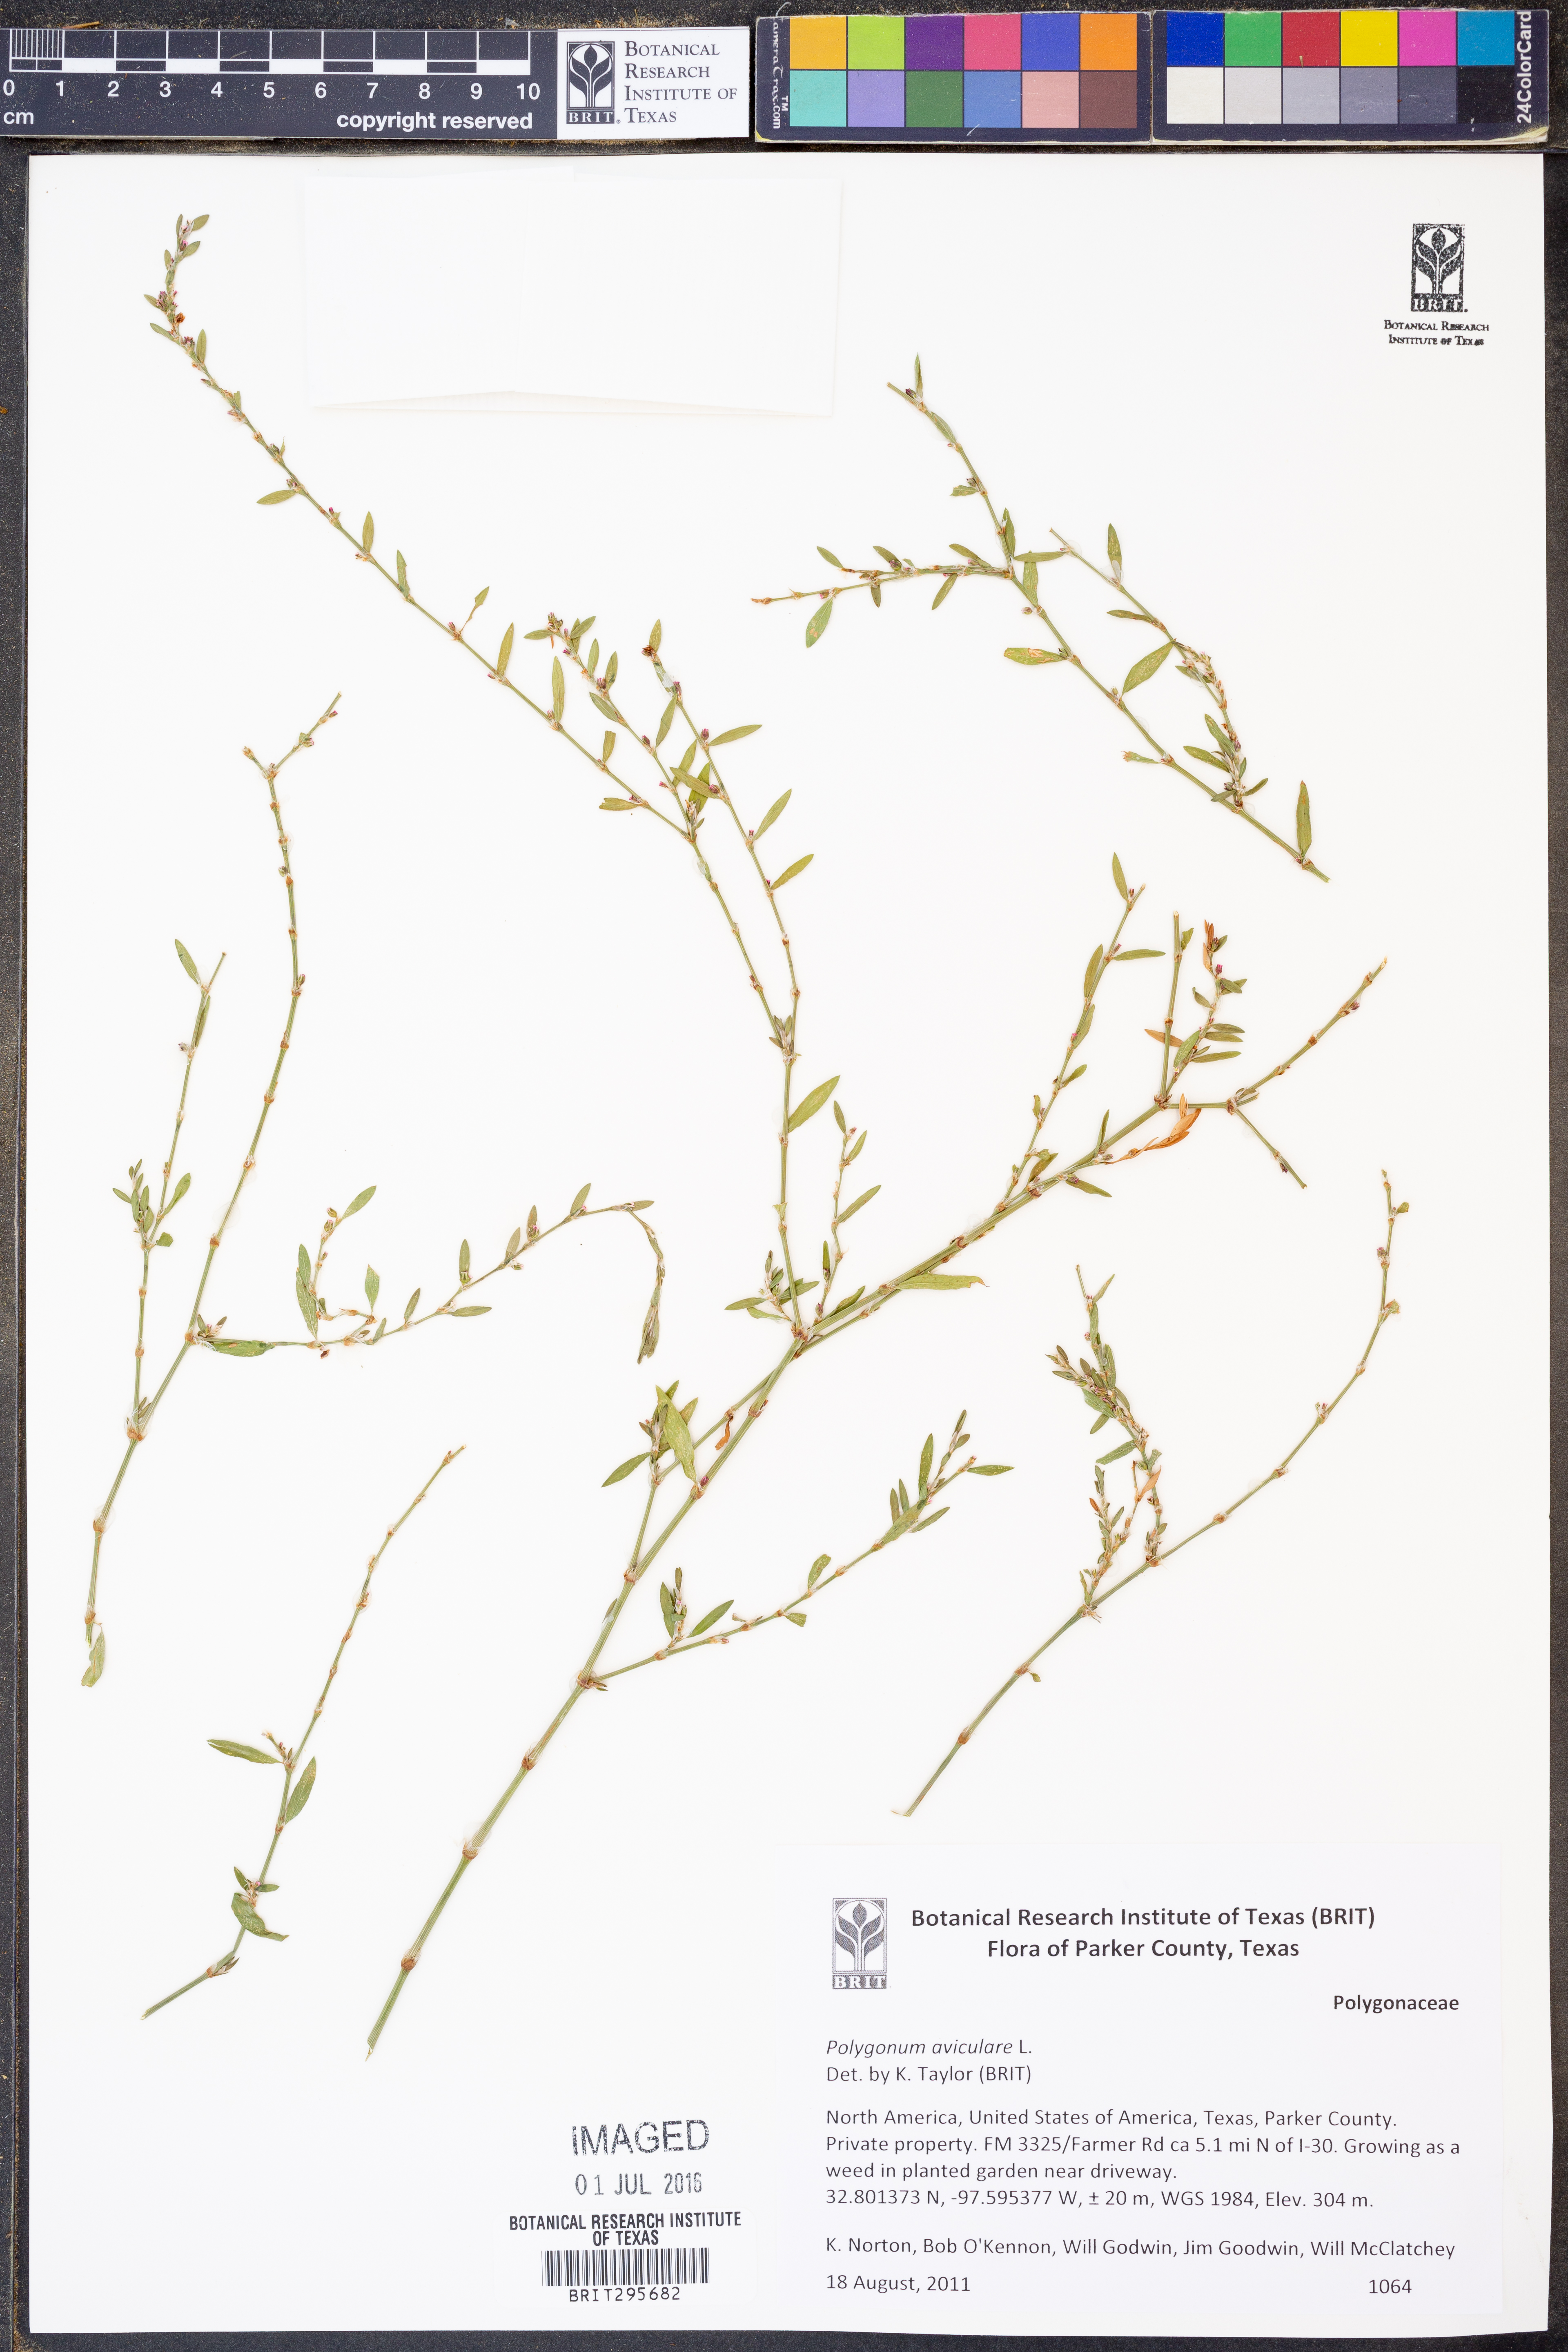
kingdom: Plantae
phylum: Tracheophyta
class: Magnoliopsida
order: Caryophyllales
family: Polygonaceae
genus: Polygonum
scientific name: Polygonum aviculare
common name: Prostrate knotweed
